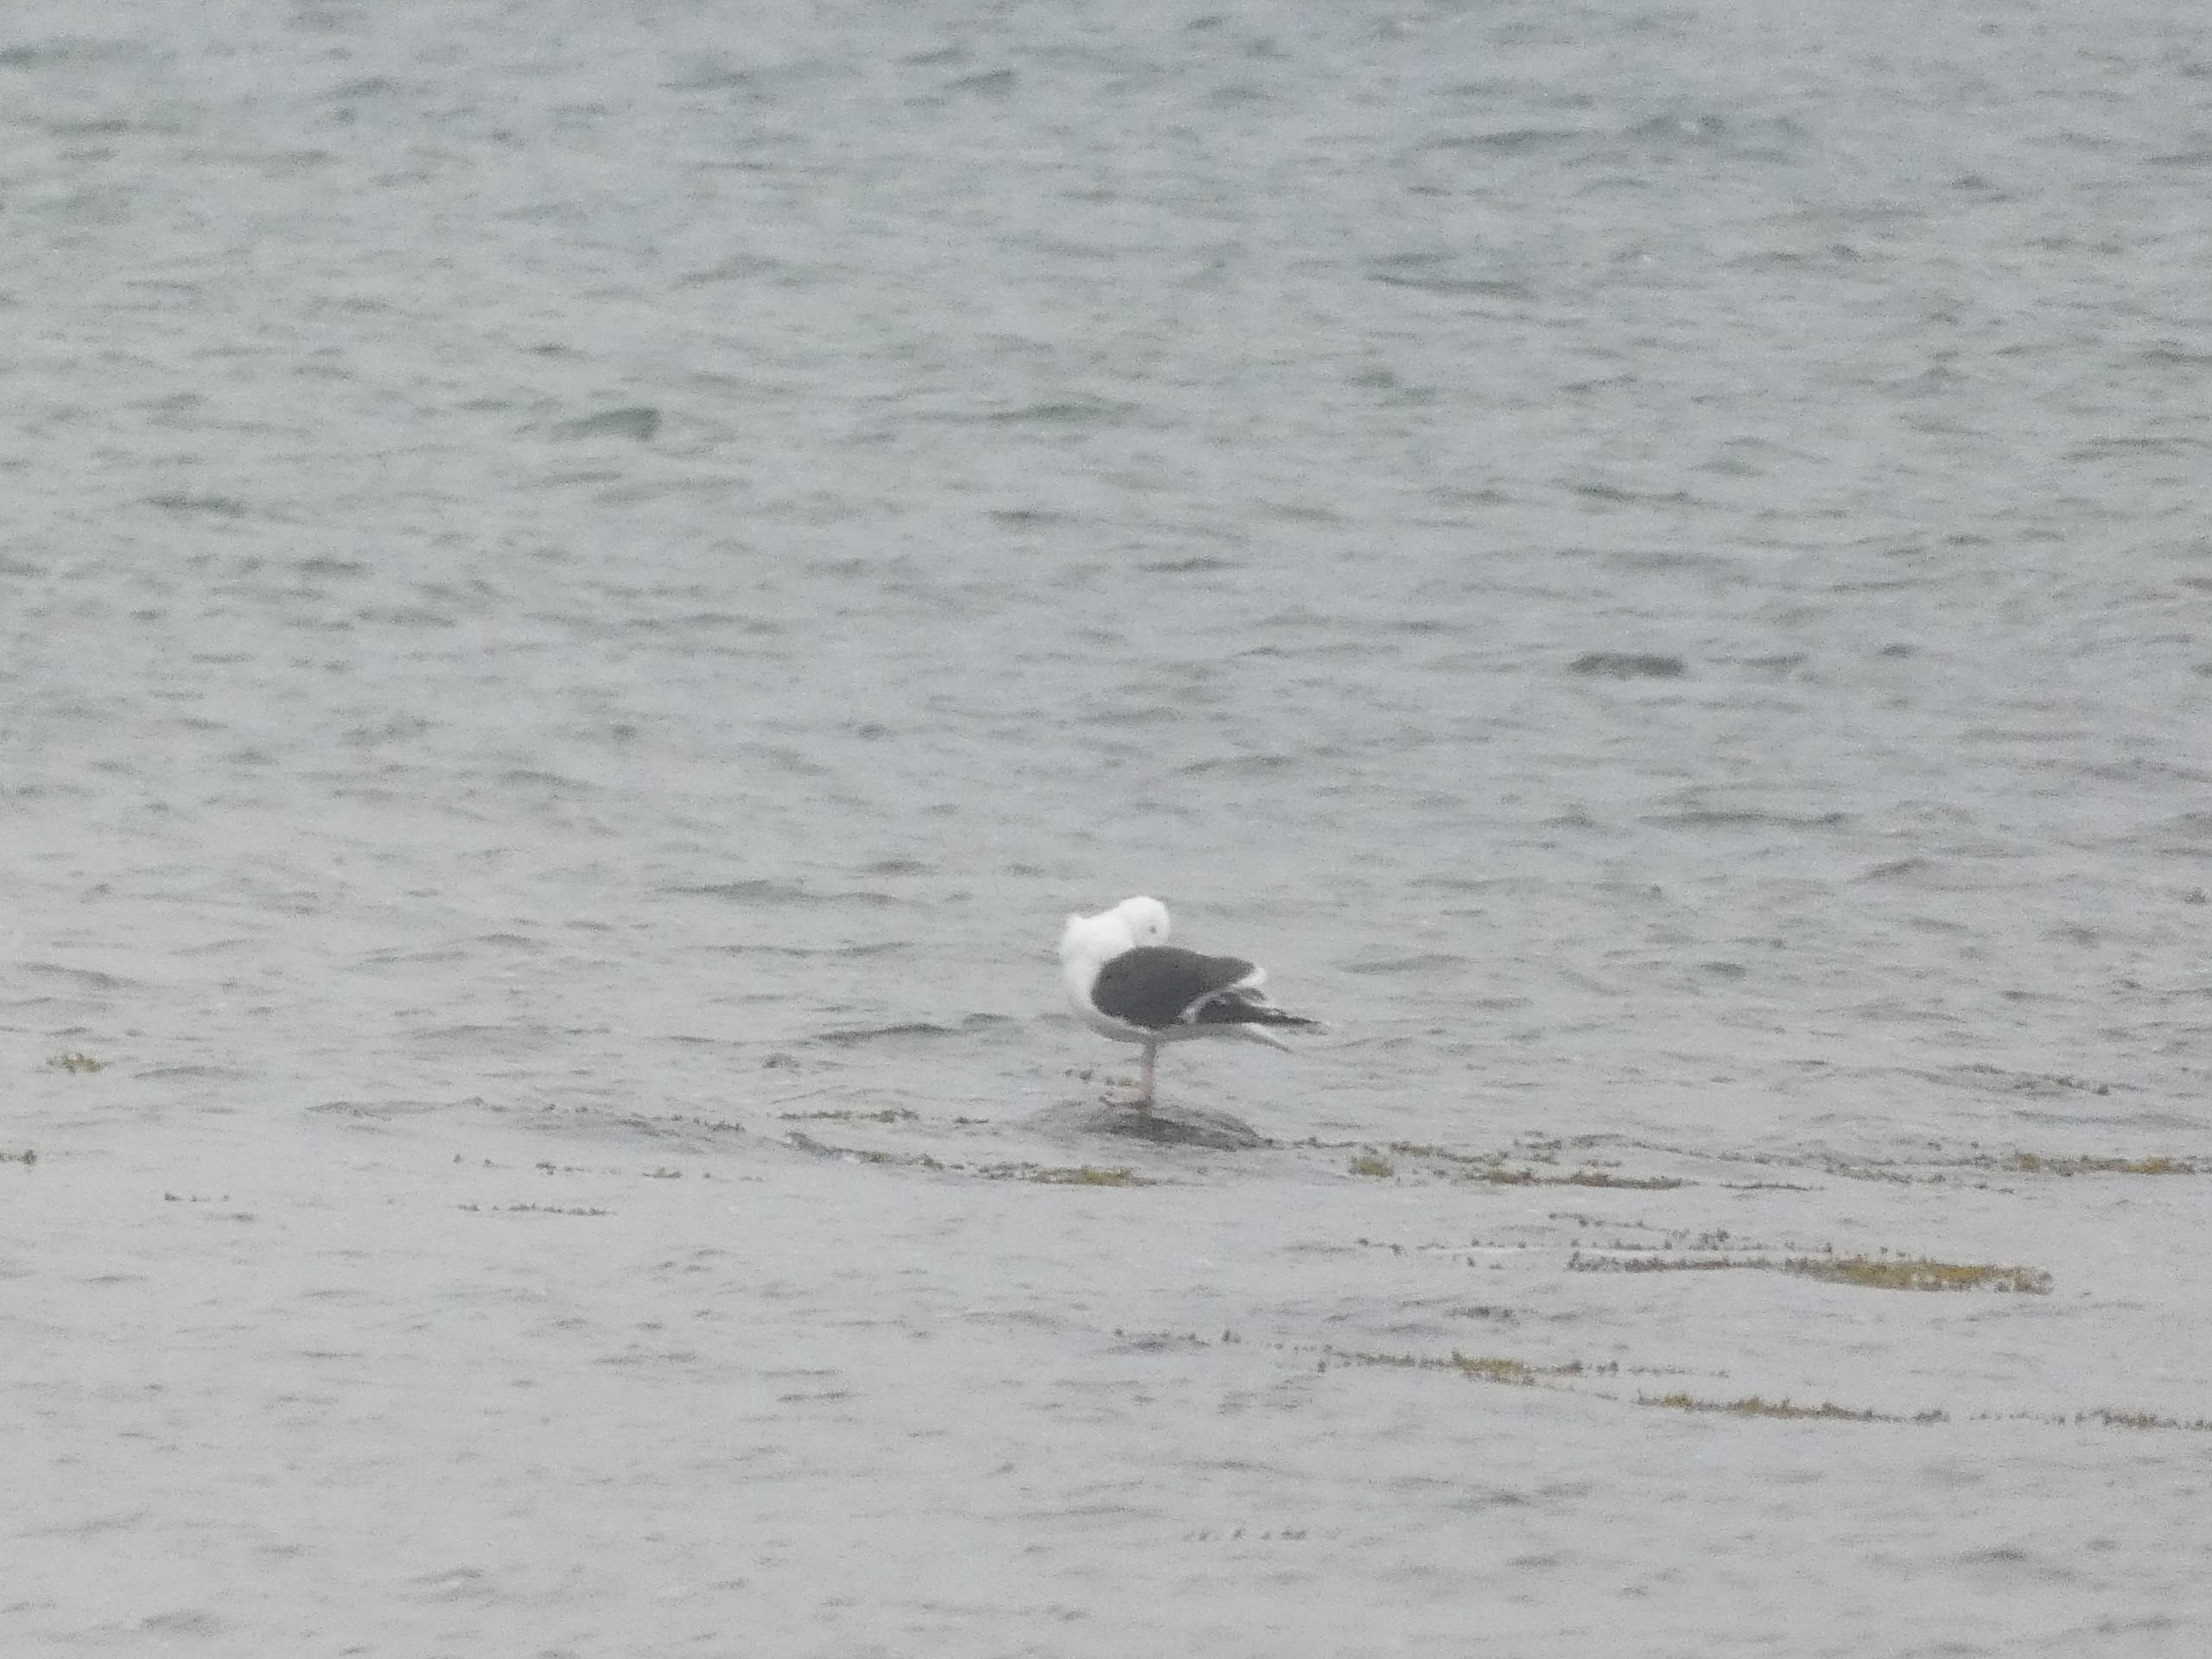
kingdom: Animalia
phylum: Chordata
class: Aves
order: Charadriiformes
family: Laridae
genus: Larus
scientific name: Larus marinus
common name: Svartbag
